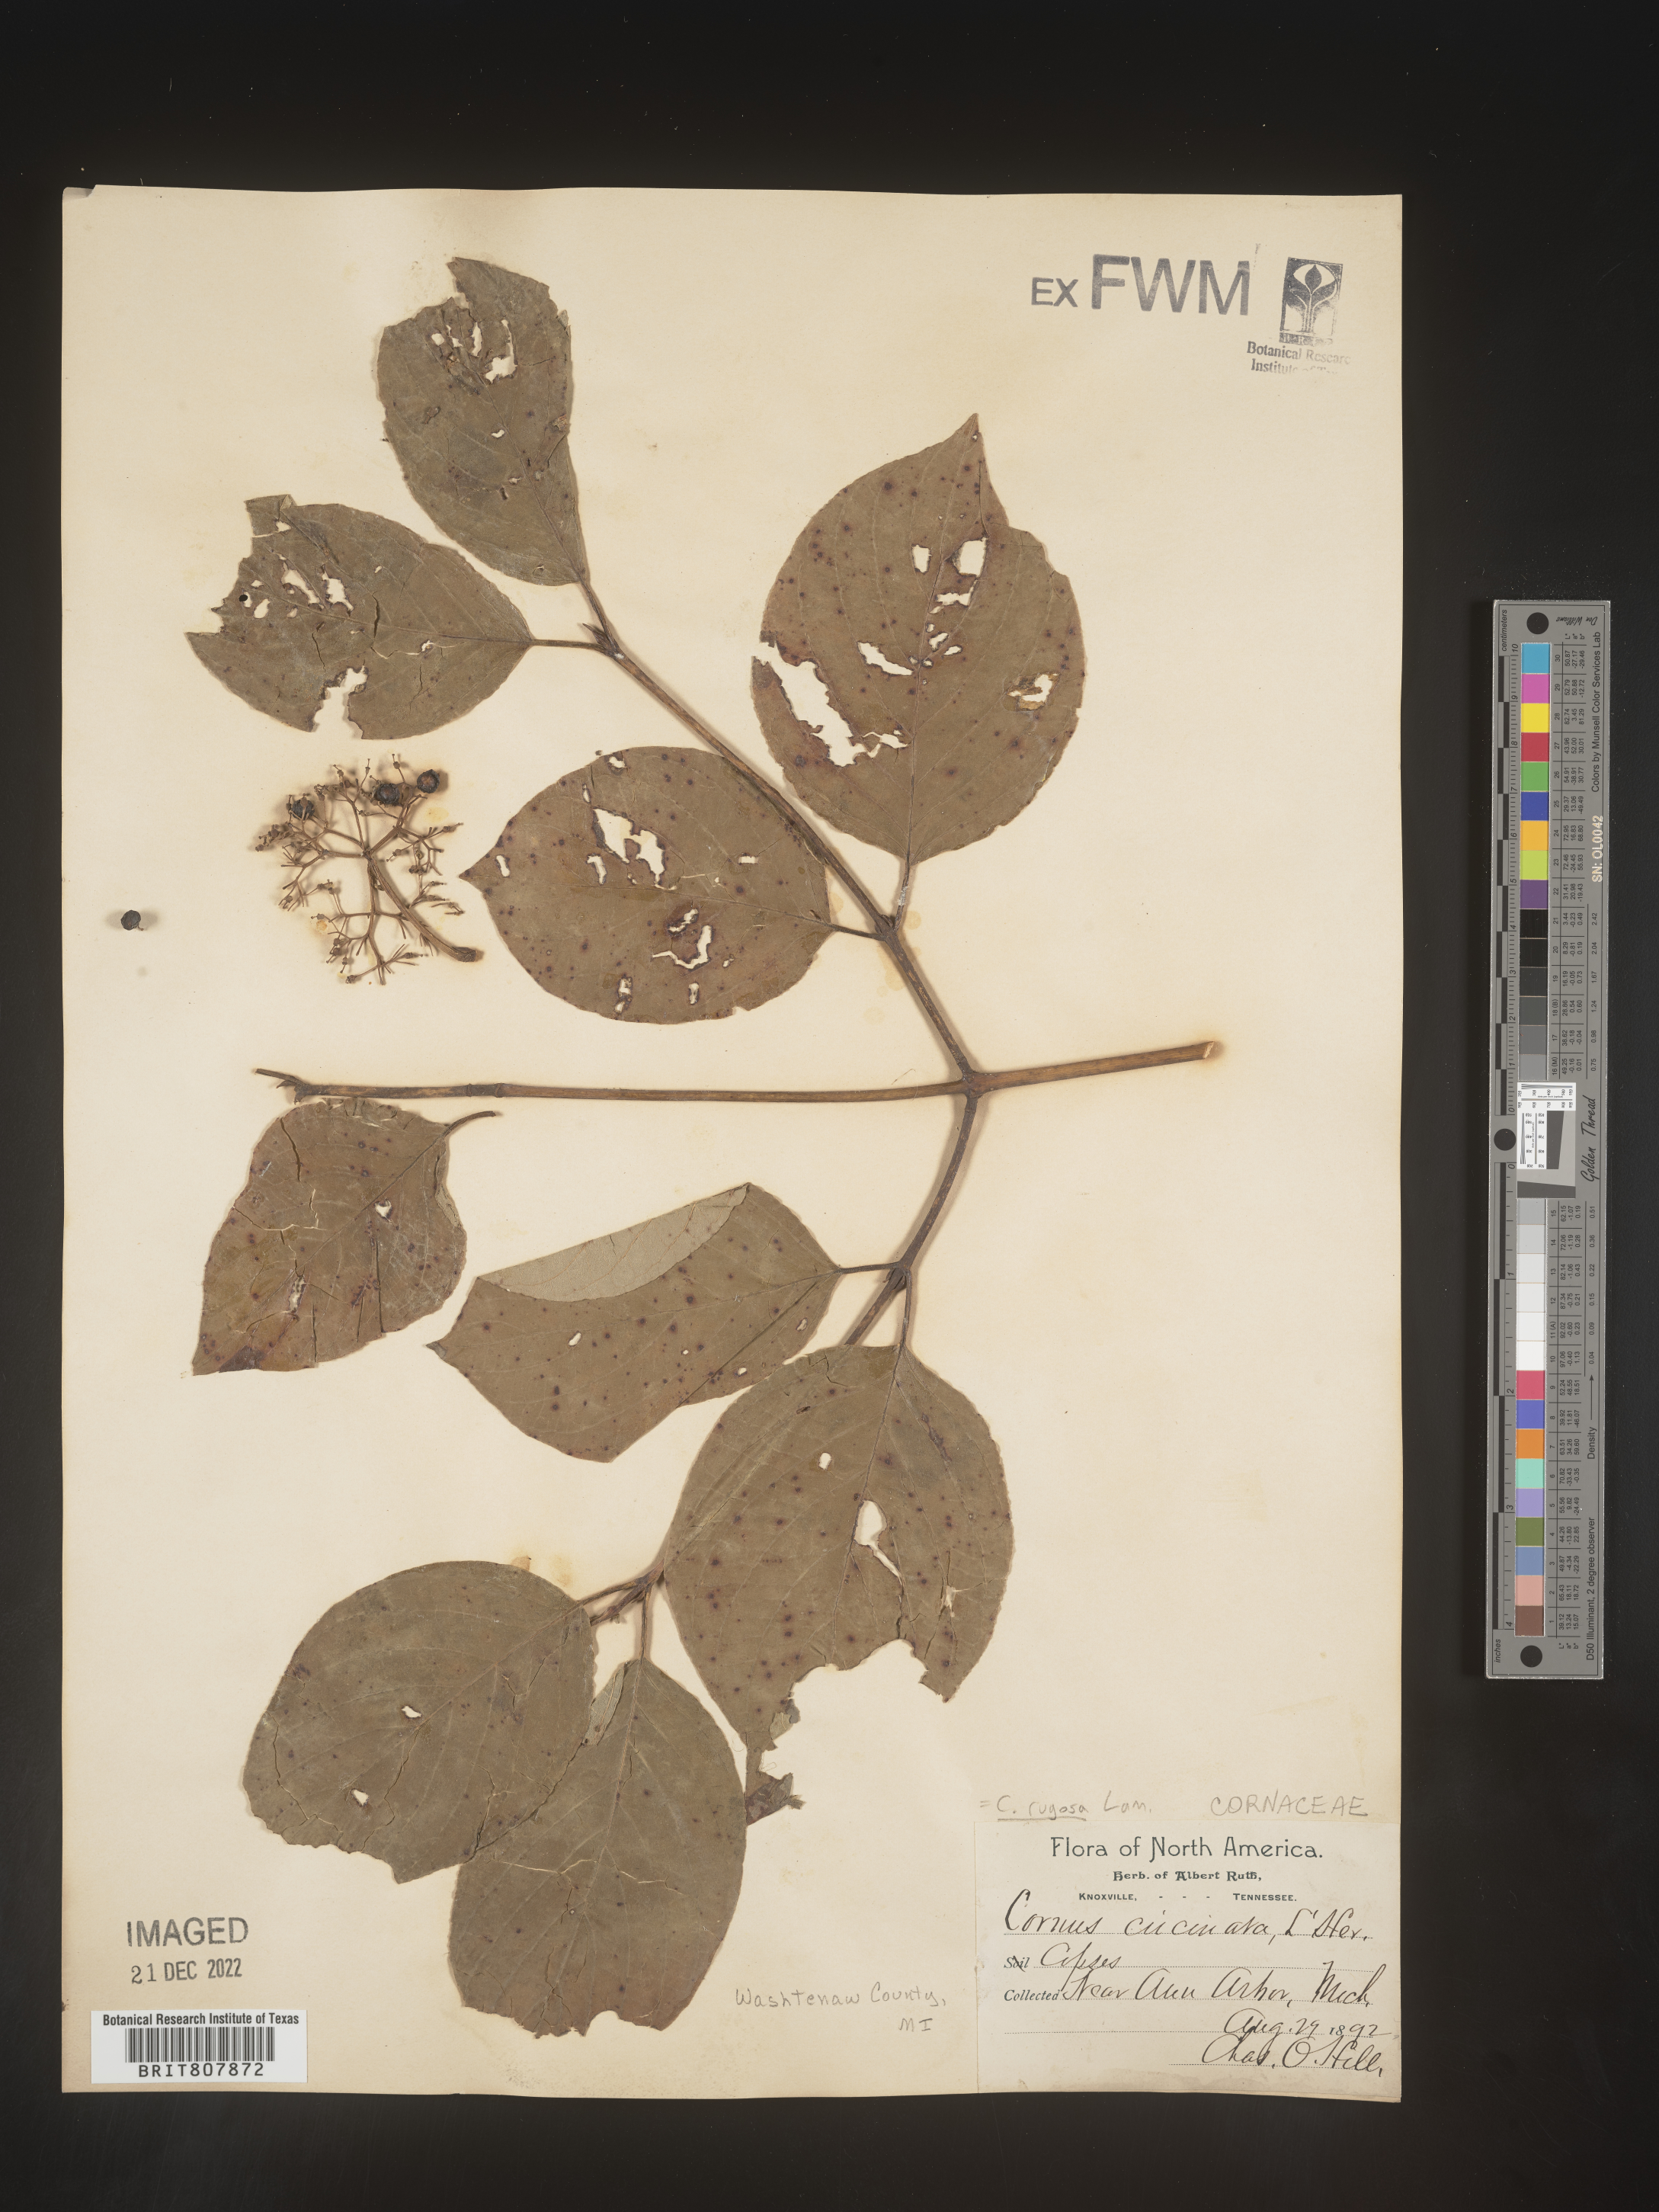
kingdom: Plantae
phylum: Tracheophyta
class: Magnoliopsida
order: Cornales
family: Cornaceae
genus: Cornus
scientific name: Cornus rugosa
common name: Round-leaf dogwood
